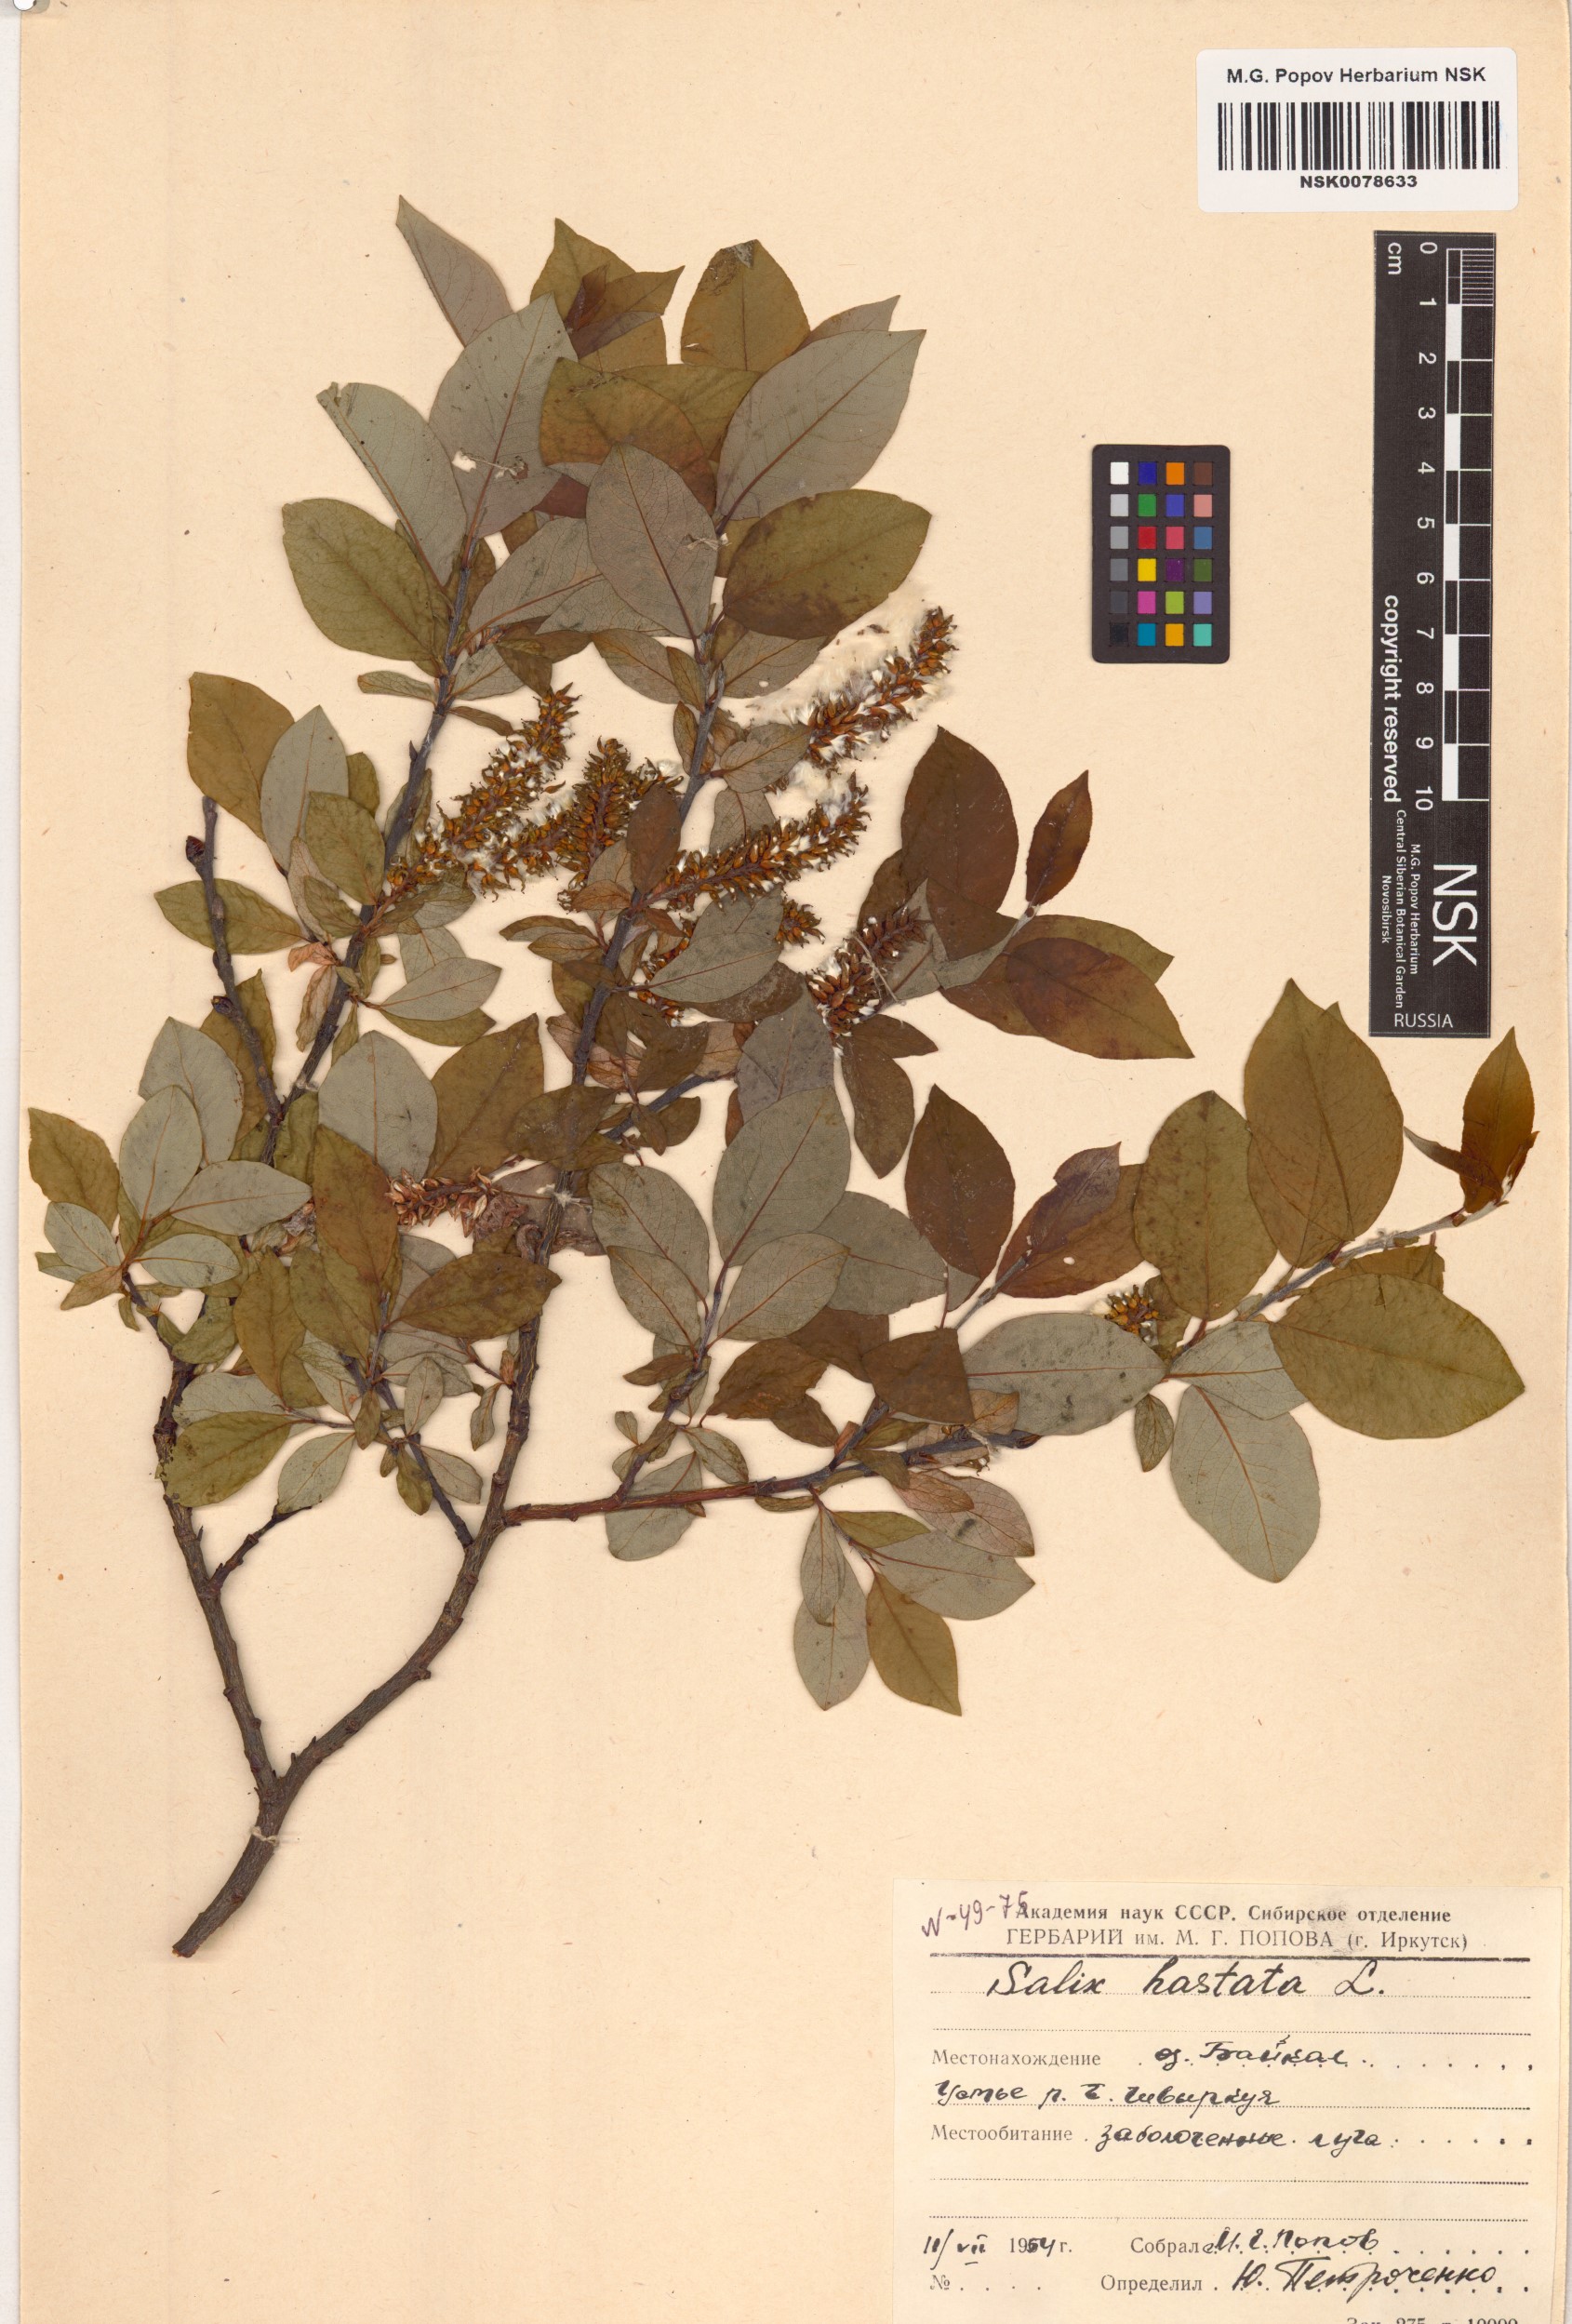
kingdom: Plantae
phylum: Tracheophyta
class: Magnoliopsida
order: Malpighiales
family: Salicaceae
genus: Salix
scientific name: Salix hastata
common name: Halberd willow
